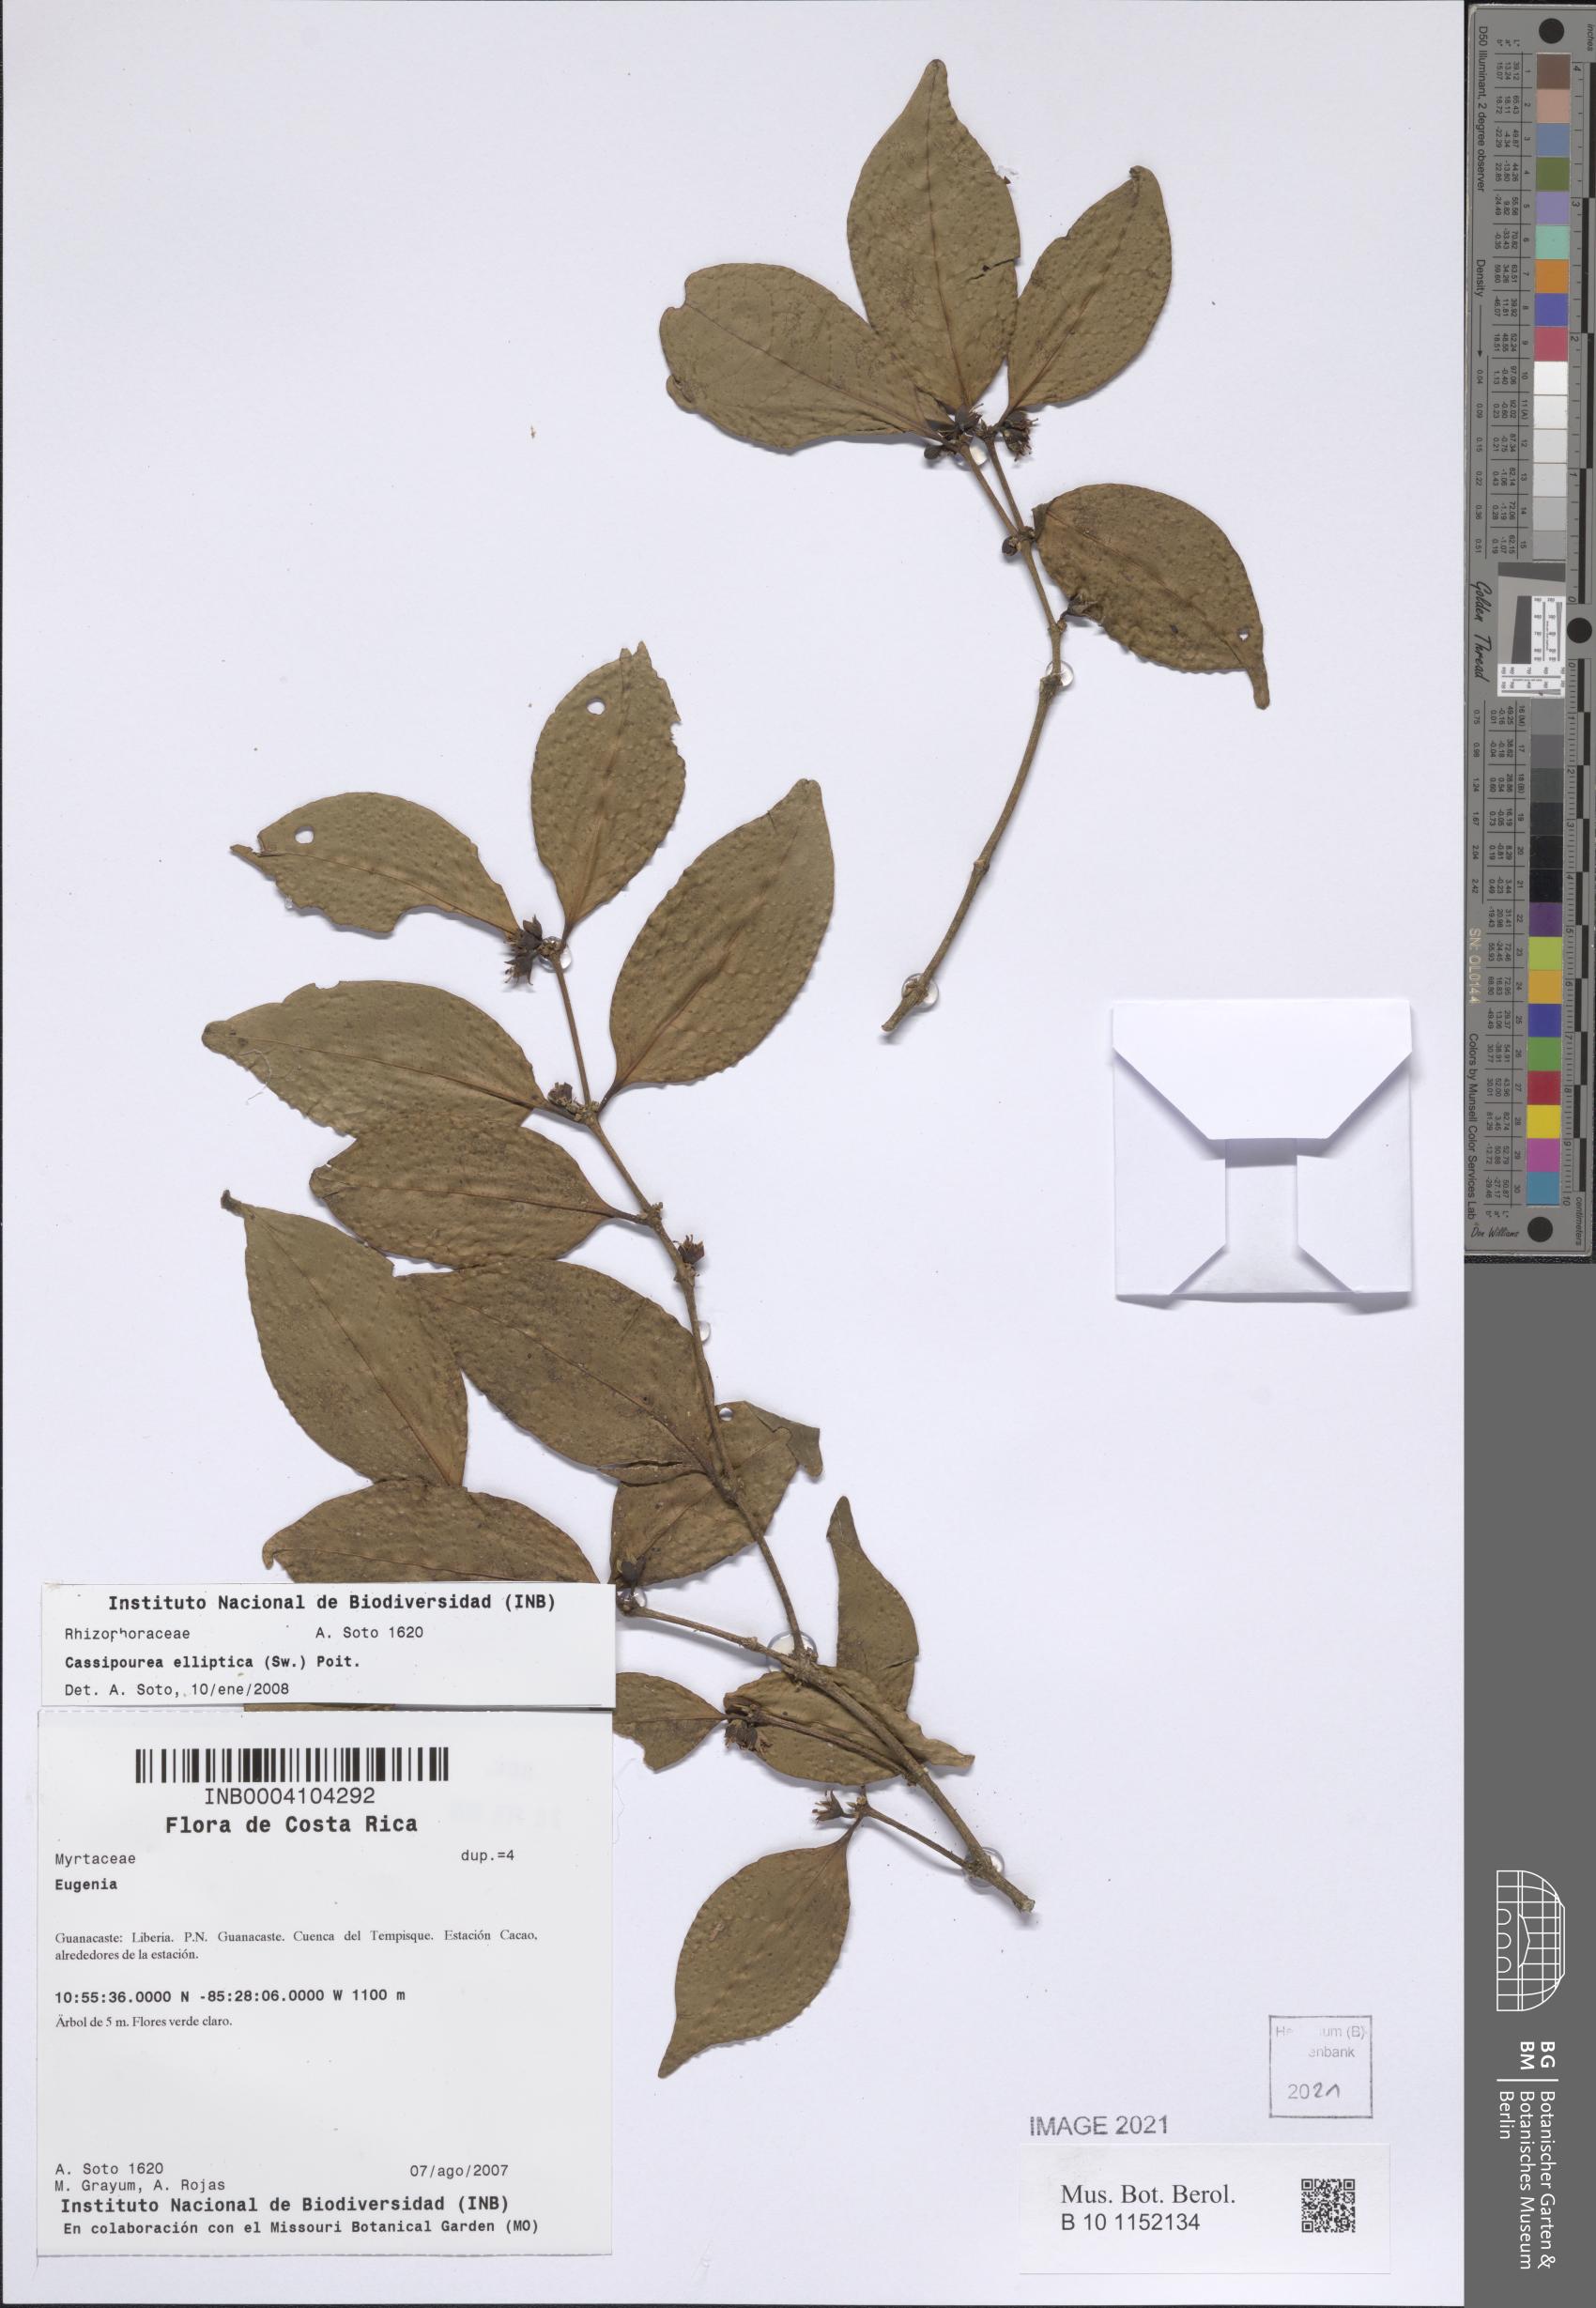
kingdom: Plantae
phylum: Tracheophyta
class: Magnoliopsida
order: Malpighiales
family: Rhizophoraceae
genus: Cassipourea
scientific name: Cassipourea elliptica
